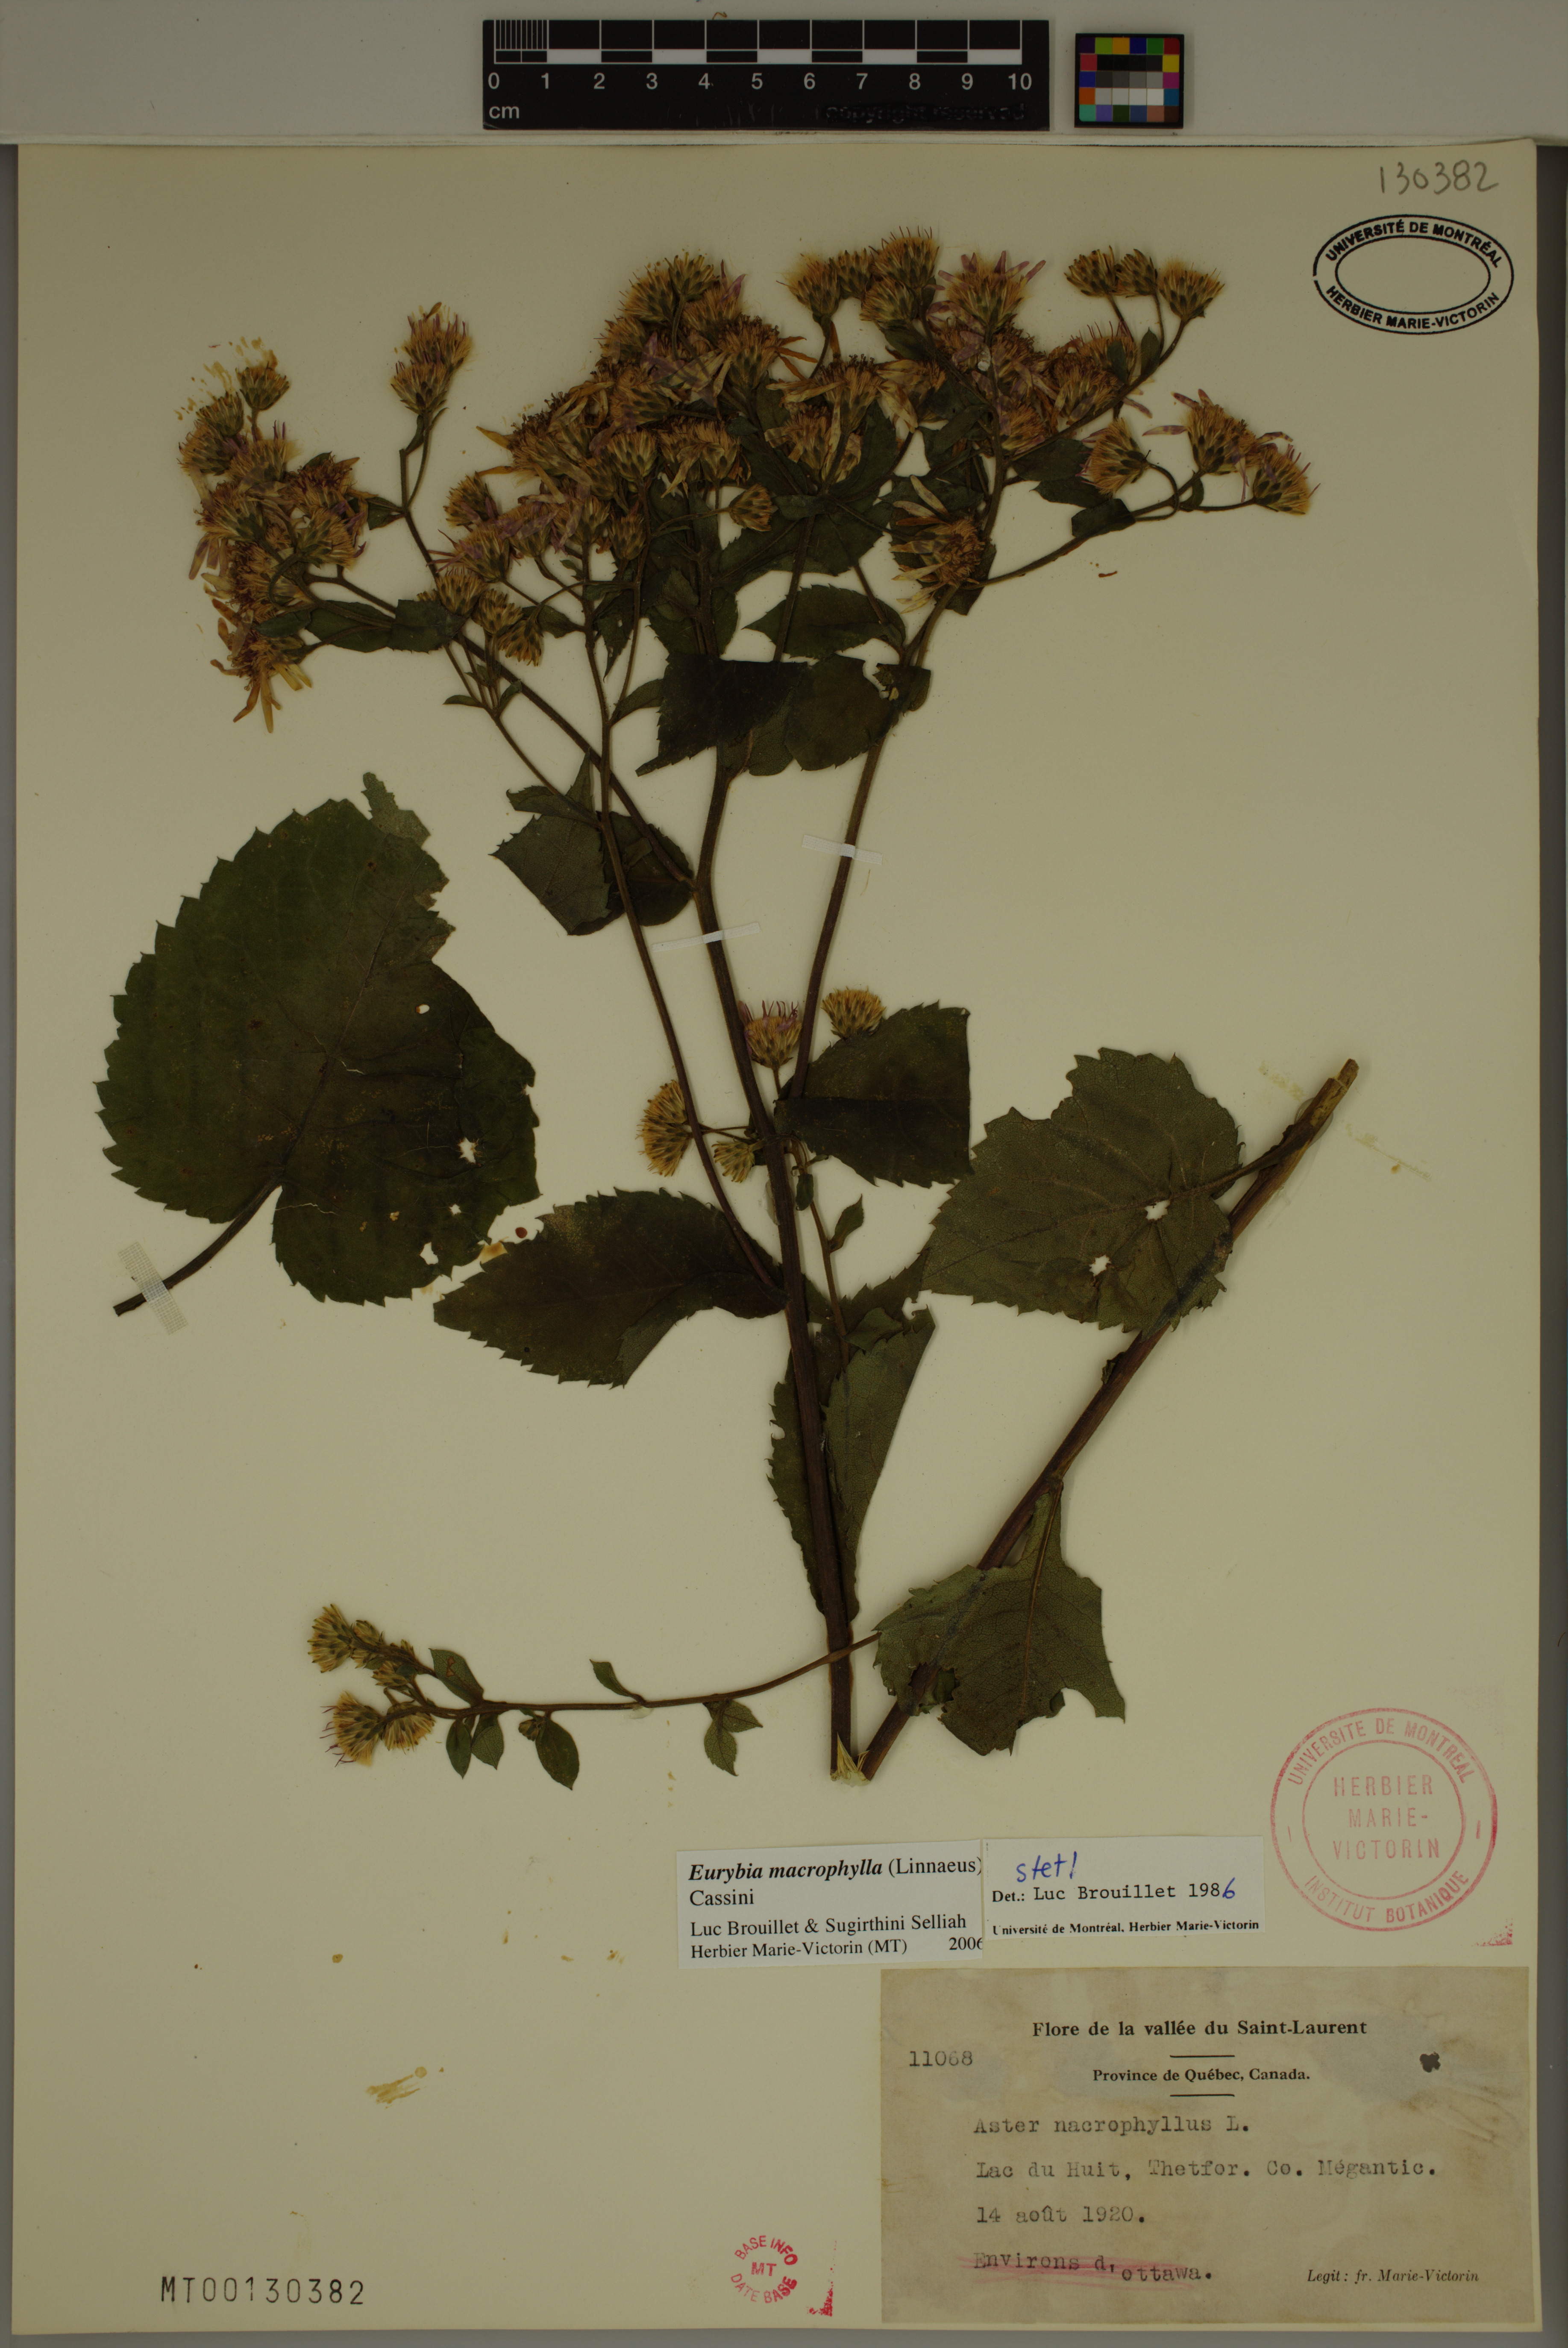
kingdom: Plantae
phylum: Tracheophyta
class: Magnoliopsida
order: Asterales
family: Asteraceae
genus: Eurybia
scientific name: Eurybia macrophylla
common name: Big-leaved aster
